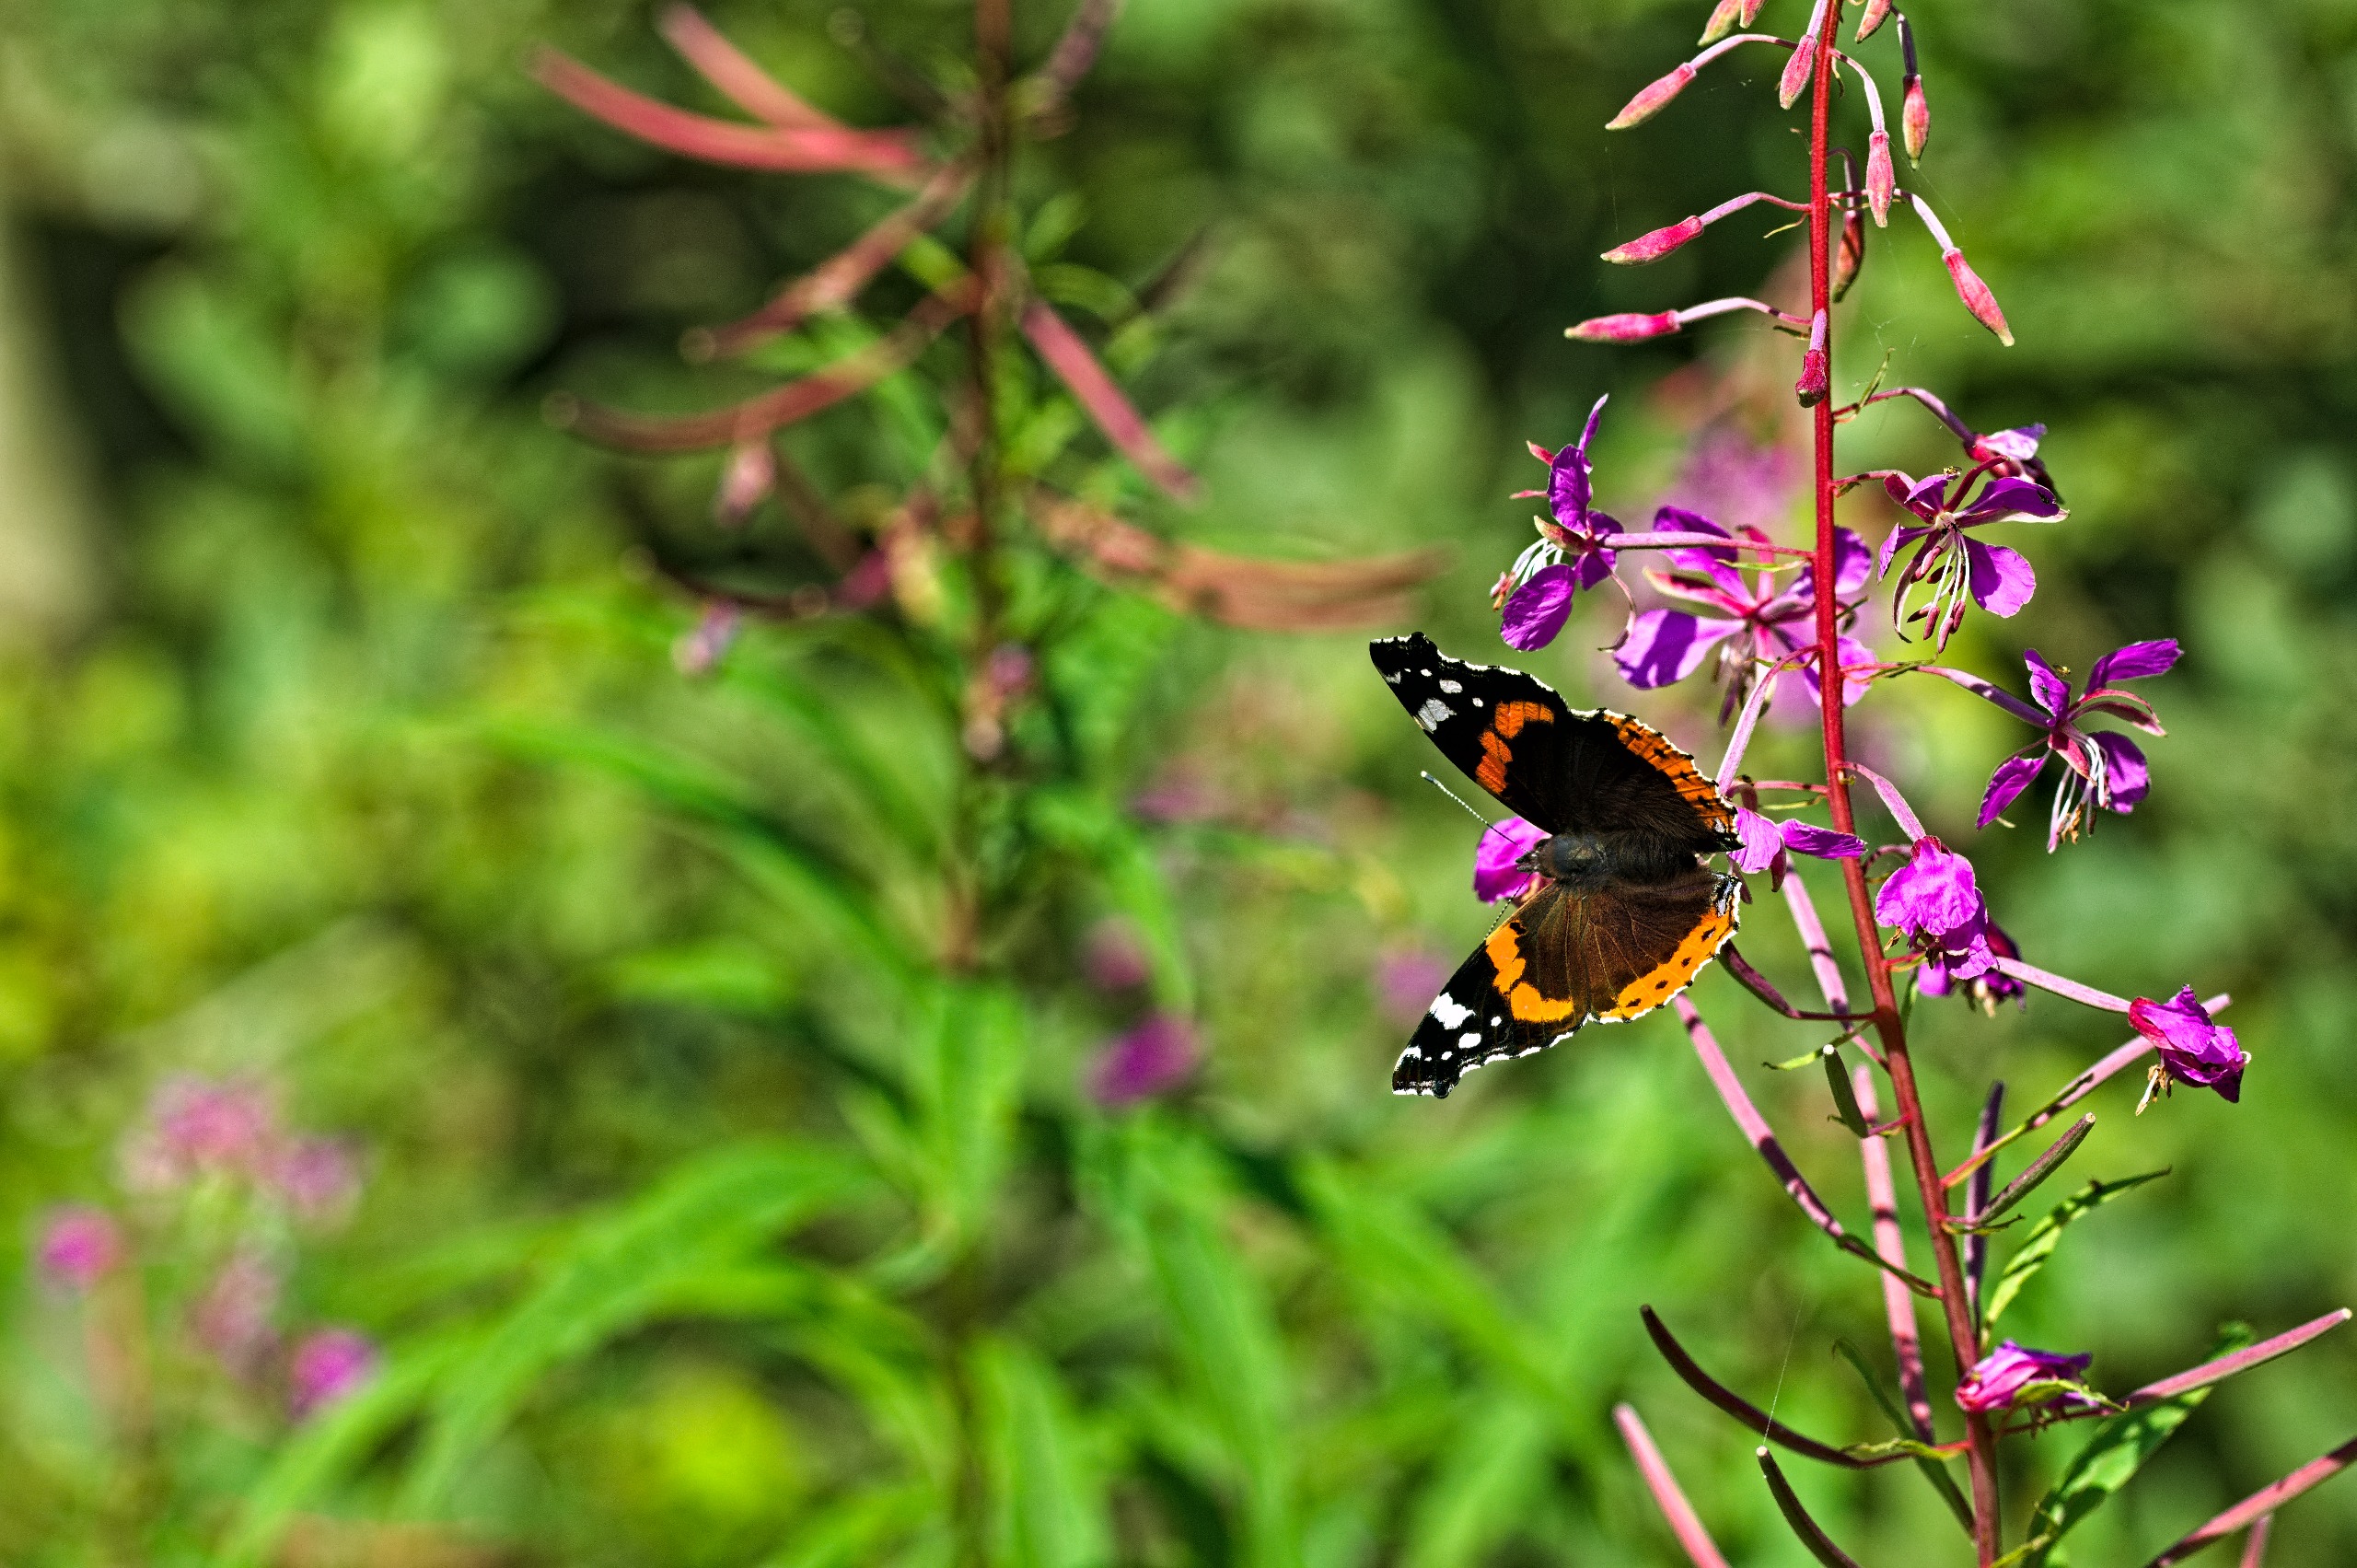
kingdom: Animalia
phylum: Arthropoda
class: Insecta
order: Lepidoptera
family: Nymphalidae
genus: Vanessa
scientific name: Vanessa atalanta
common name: Admiral
